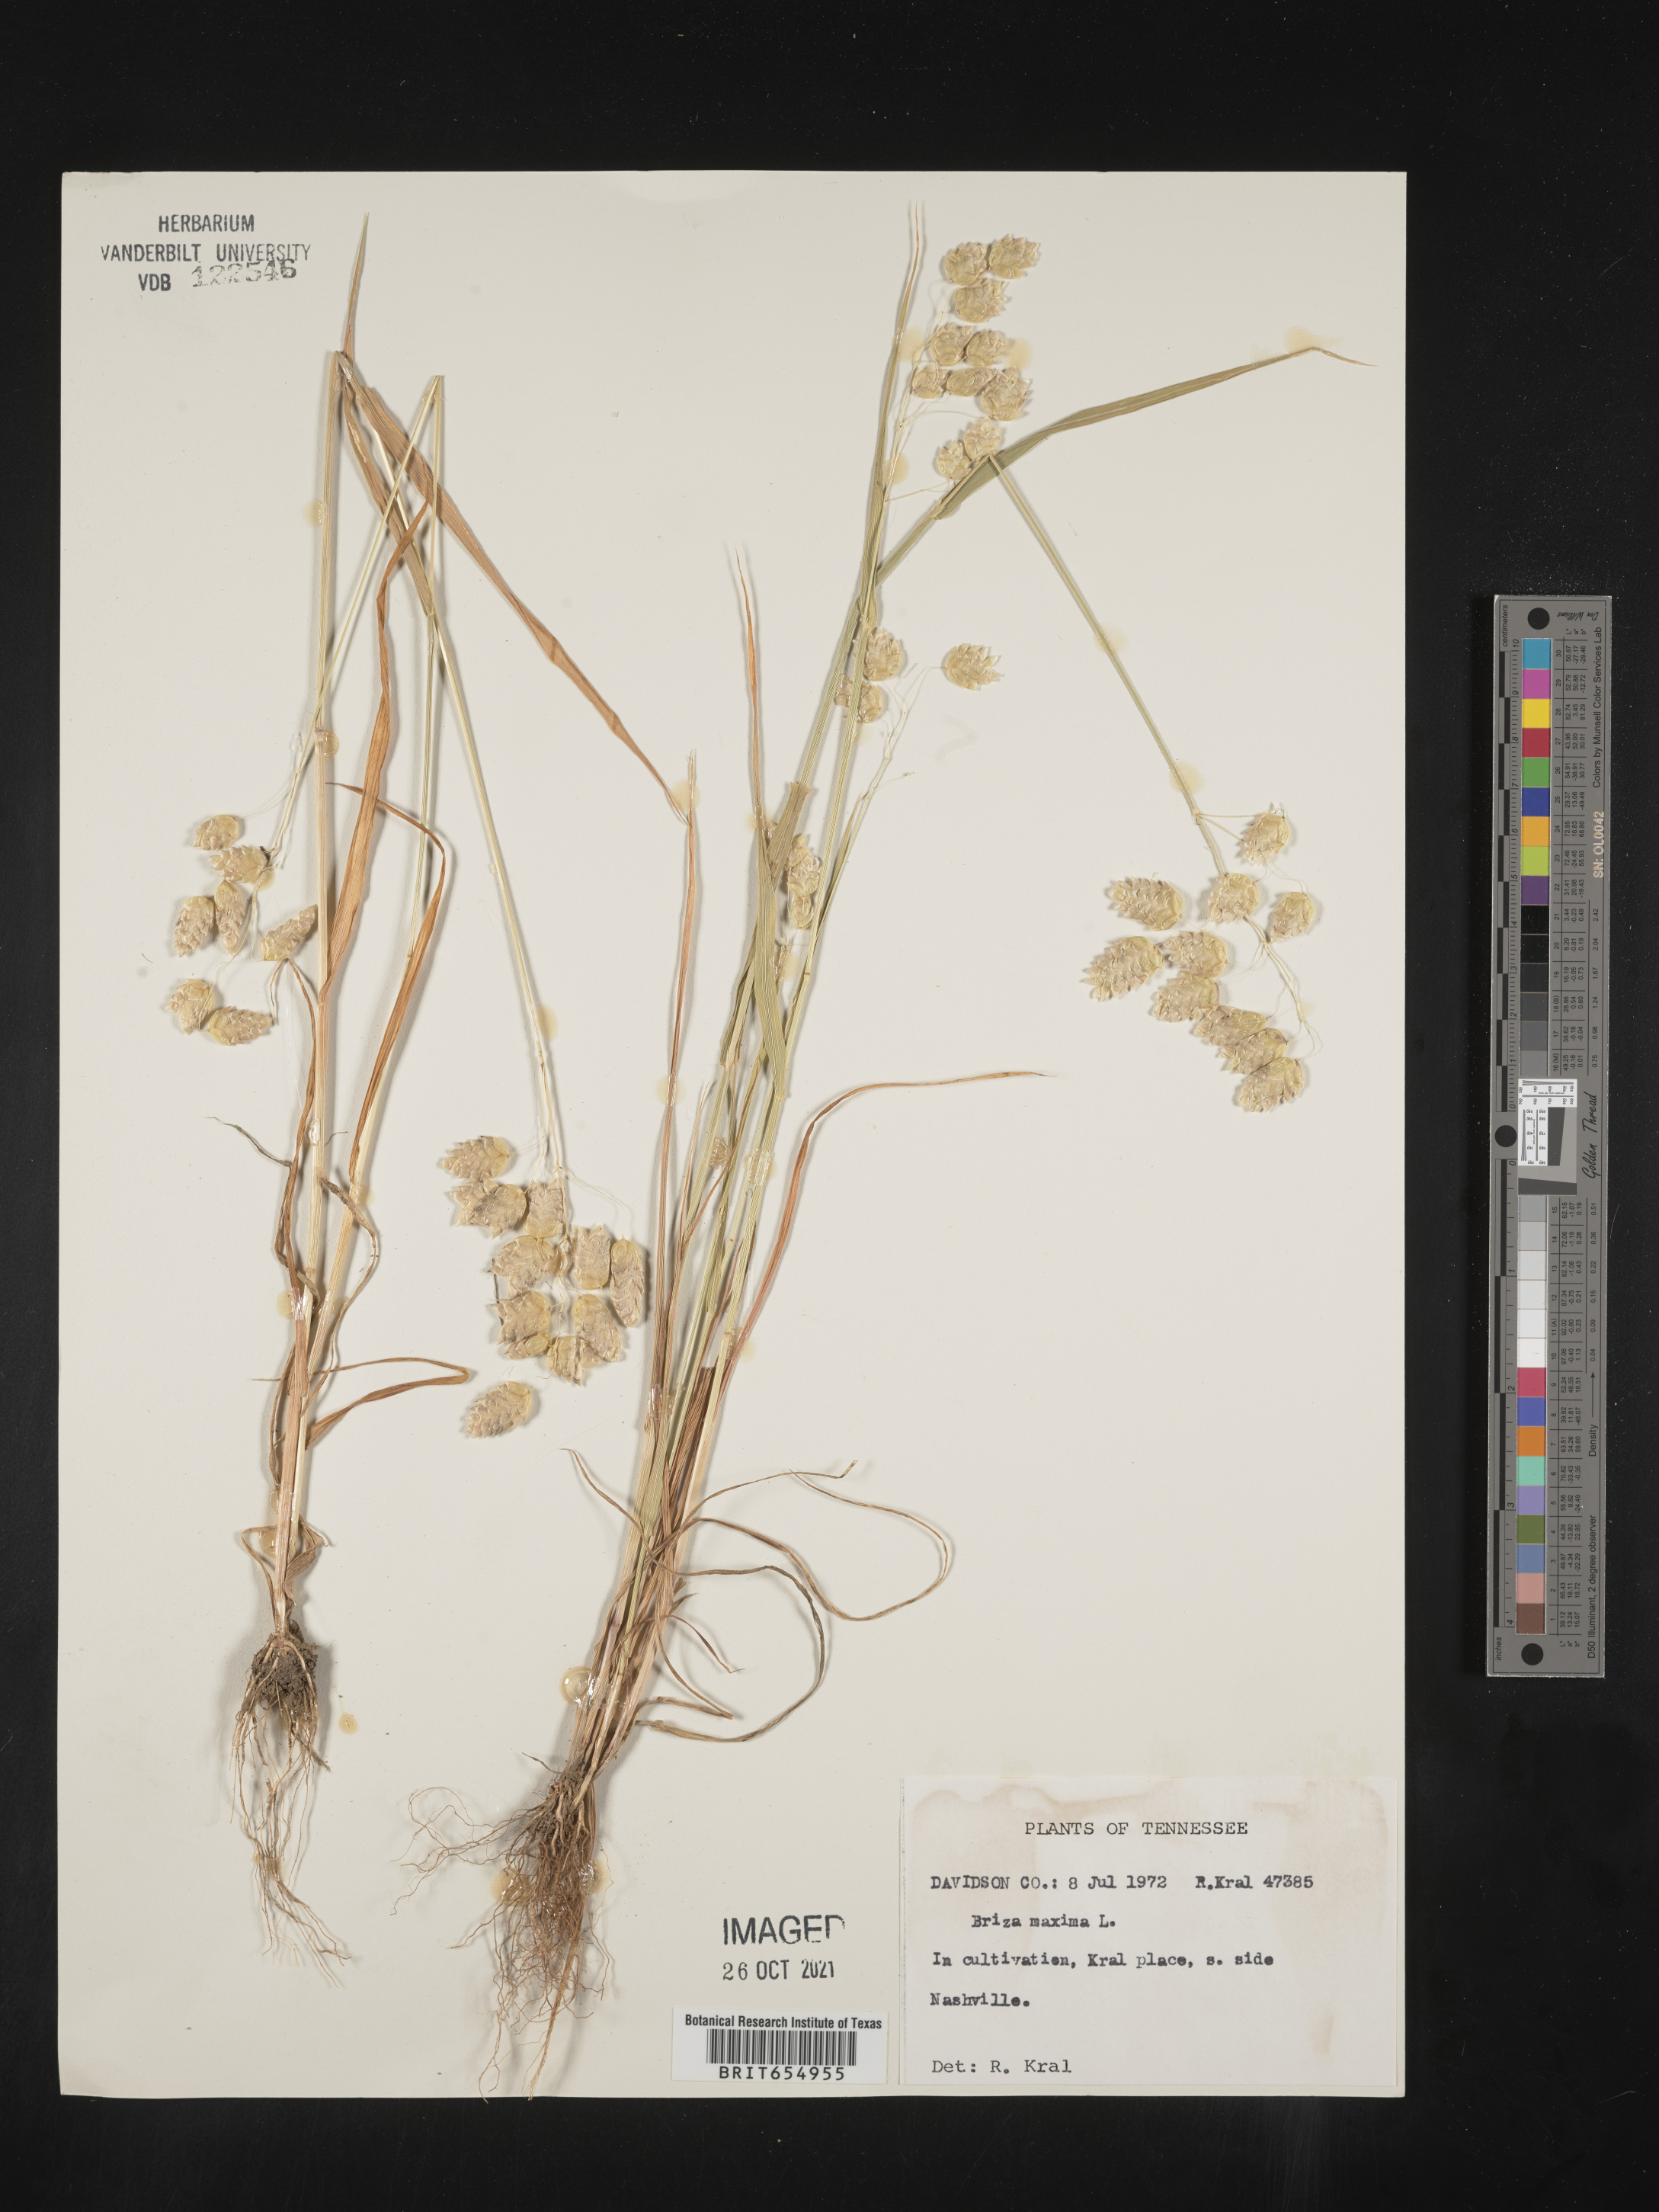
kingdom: Plantae
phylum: Tracheophyta
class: Liliopsida
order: Poales
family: Poaceae
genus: Briza
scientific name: Briza
